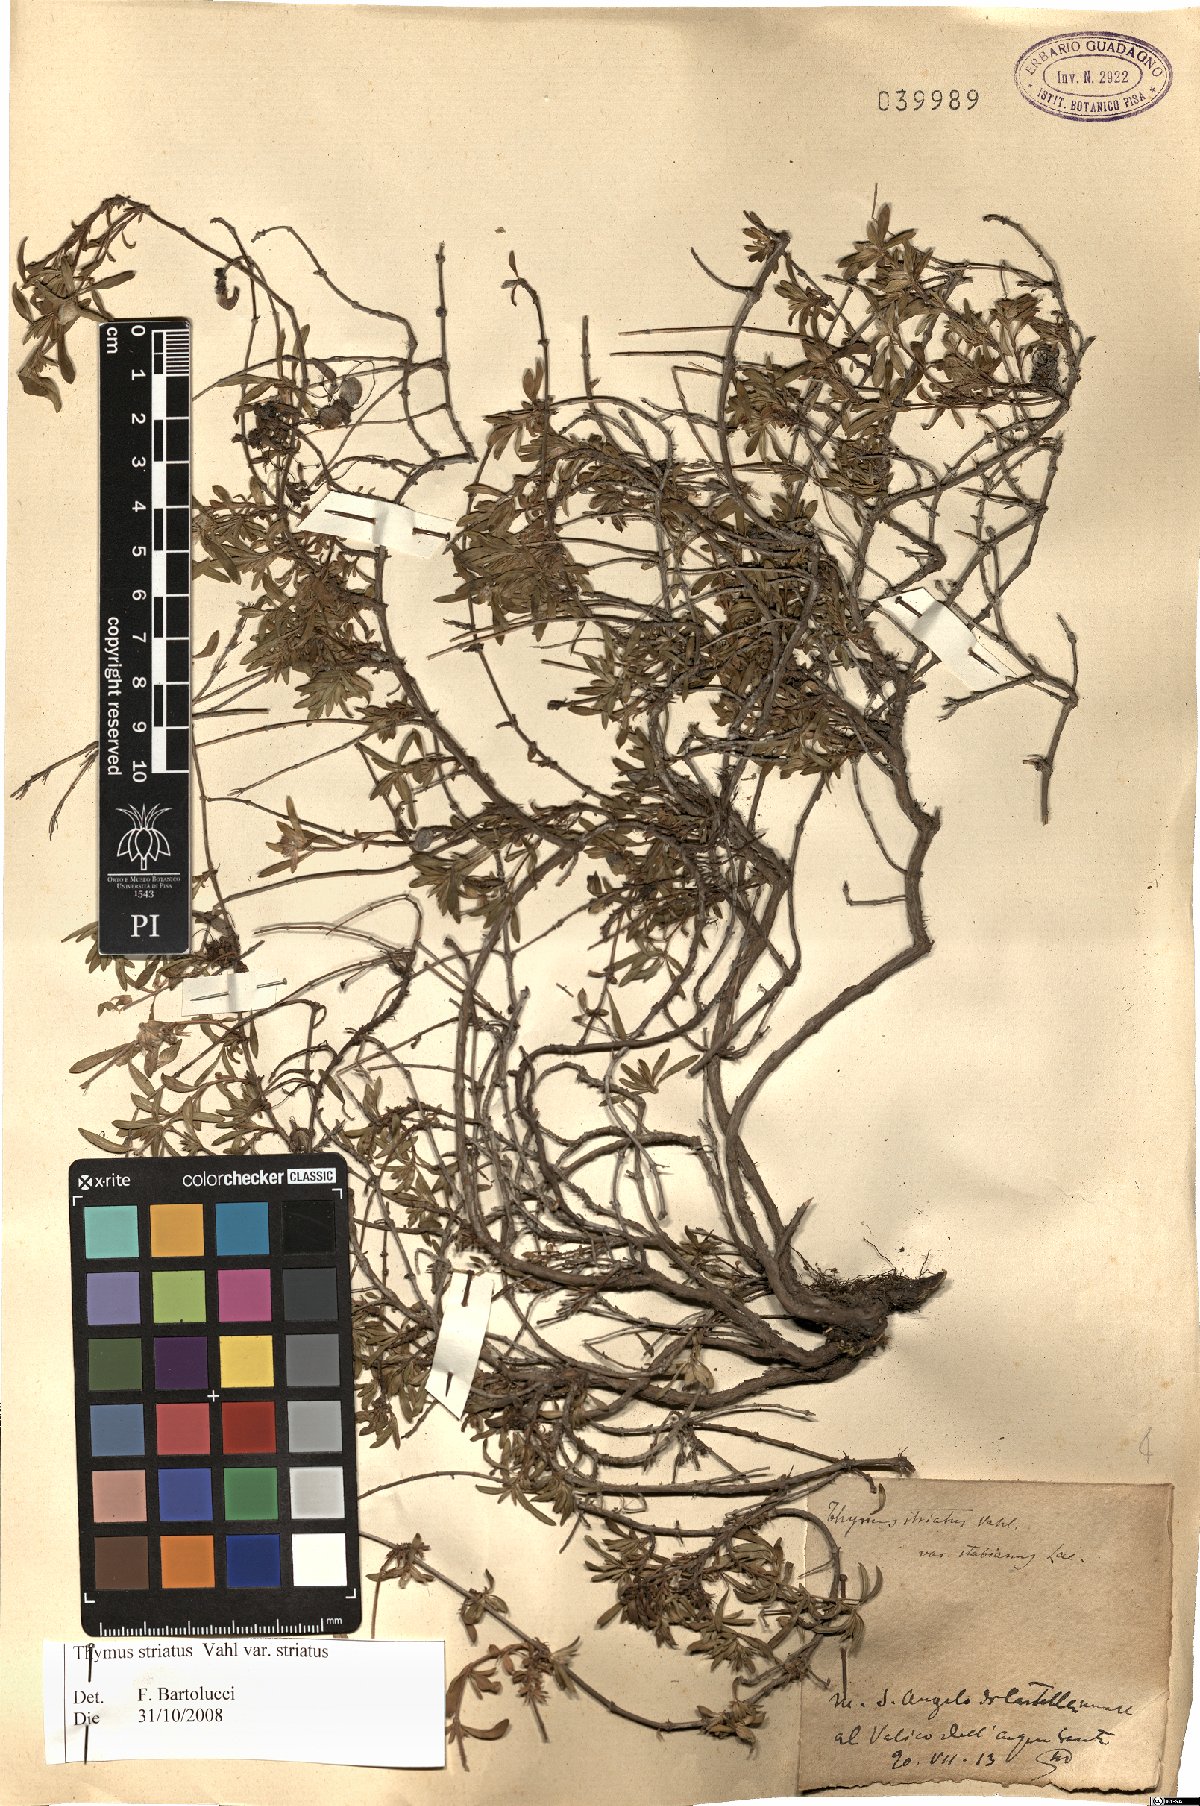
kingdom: Plantae
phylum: Tracheophyta
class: Magnoliopsida
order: Lamiales
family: Lamiaceae
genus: Thymus
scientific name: Thymus striatus
